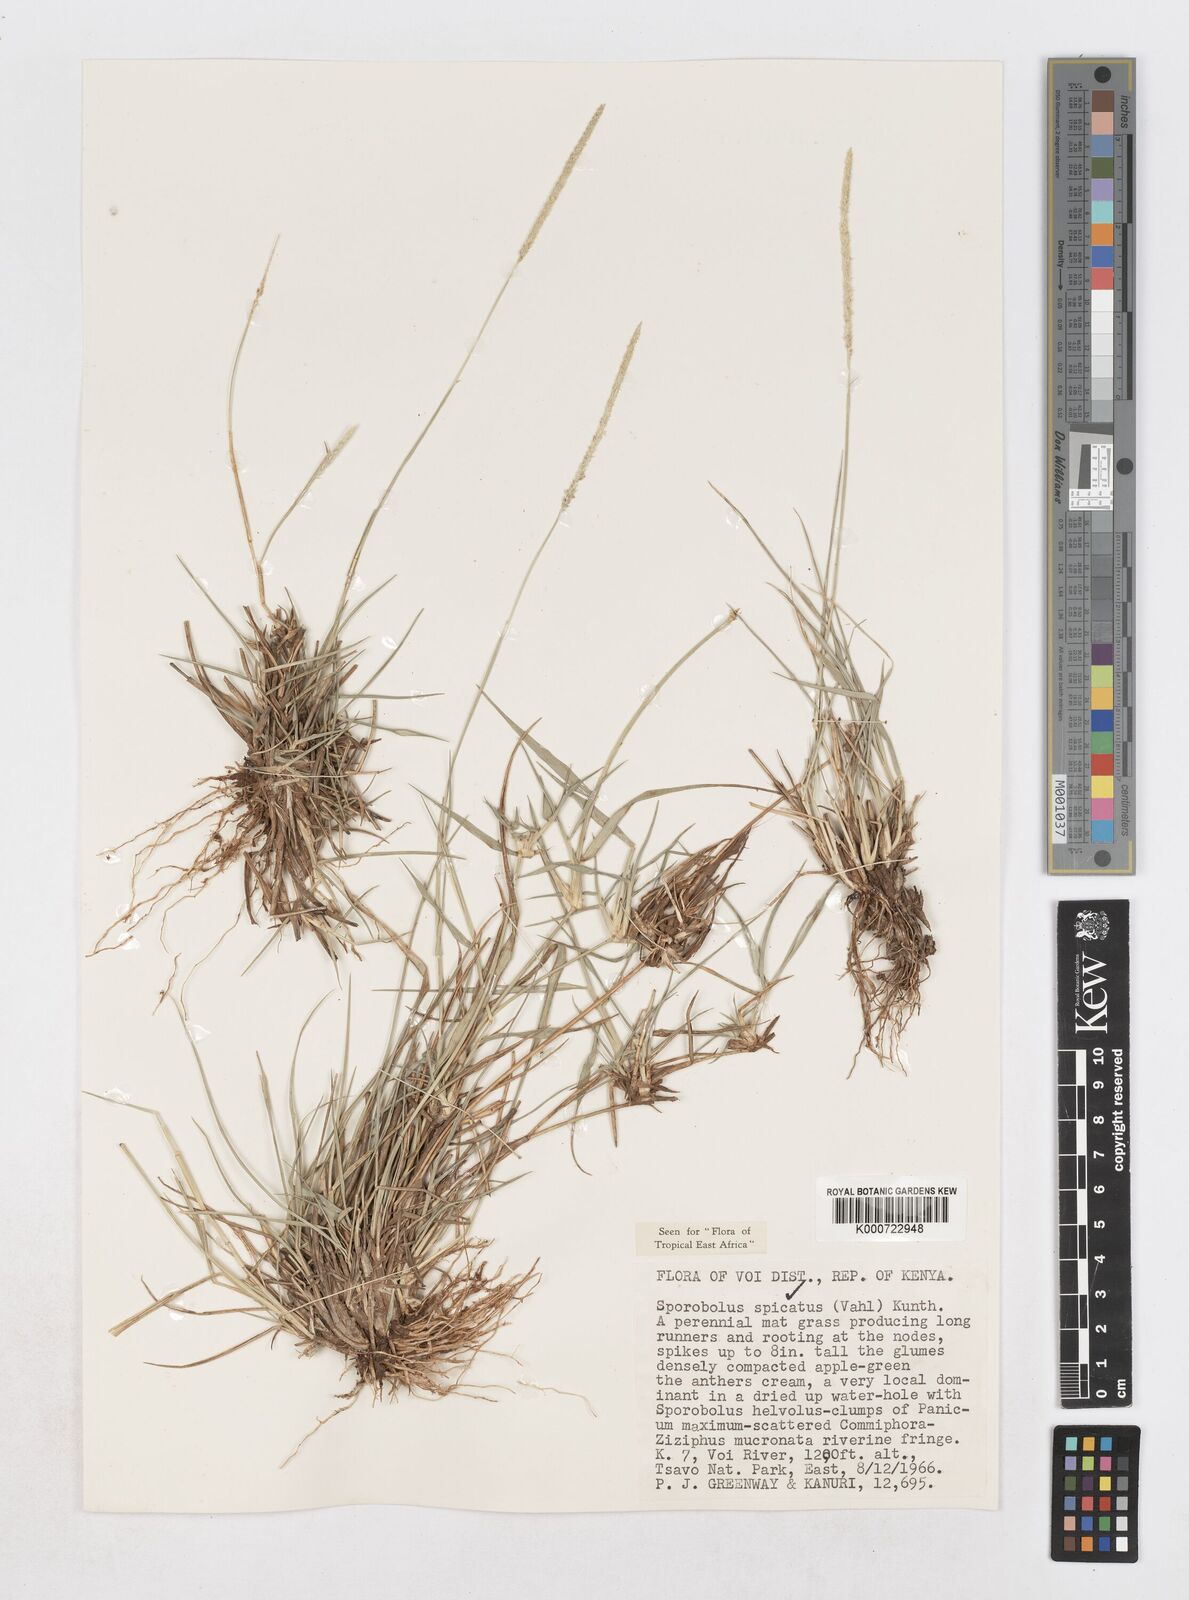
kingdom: Plantae
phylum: Tracheophyta
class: Liliopsida
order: Poales
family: Poaceae
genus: Sporobolus
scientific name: Sporobolus spicatus
